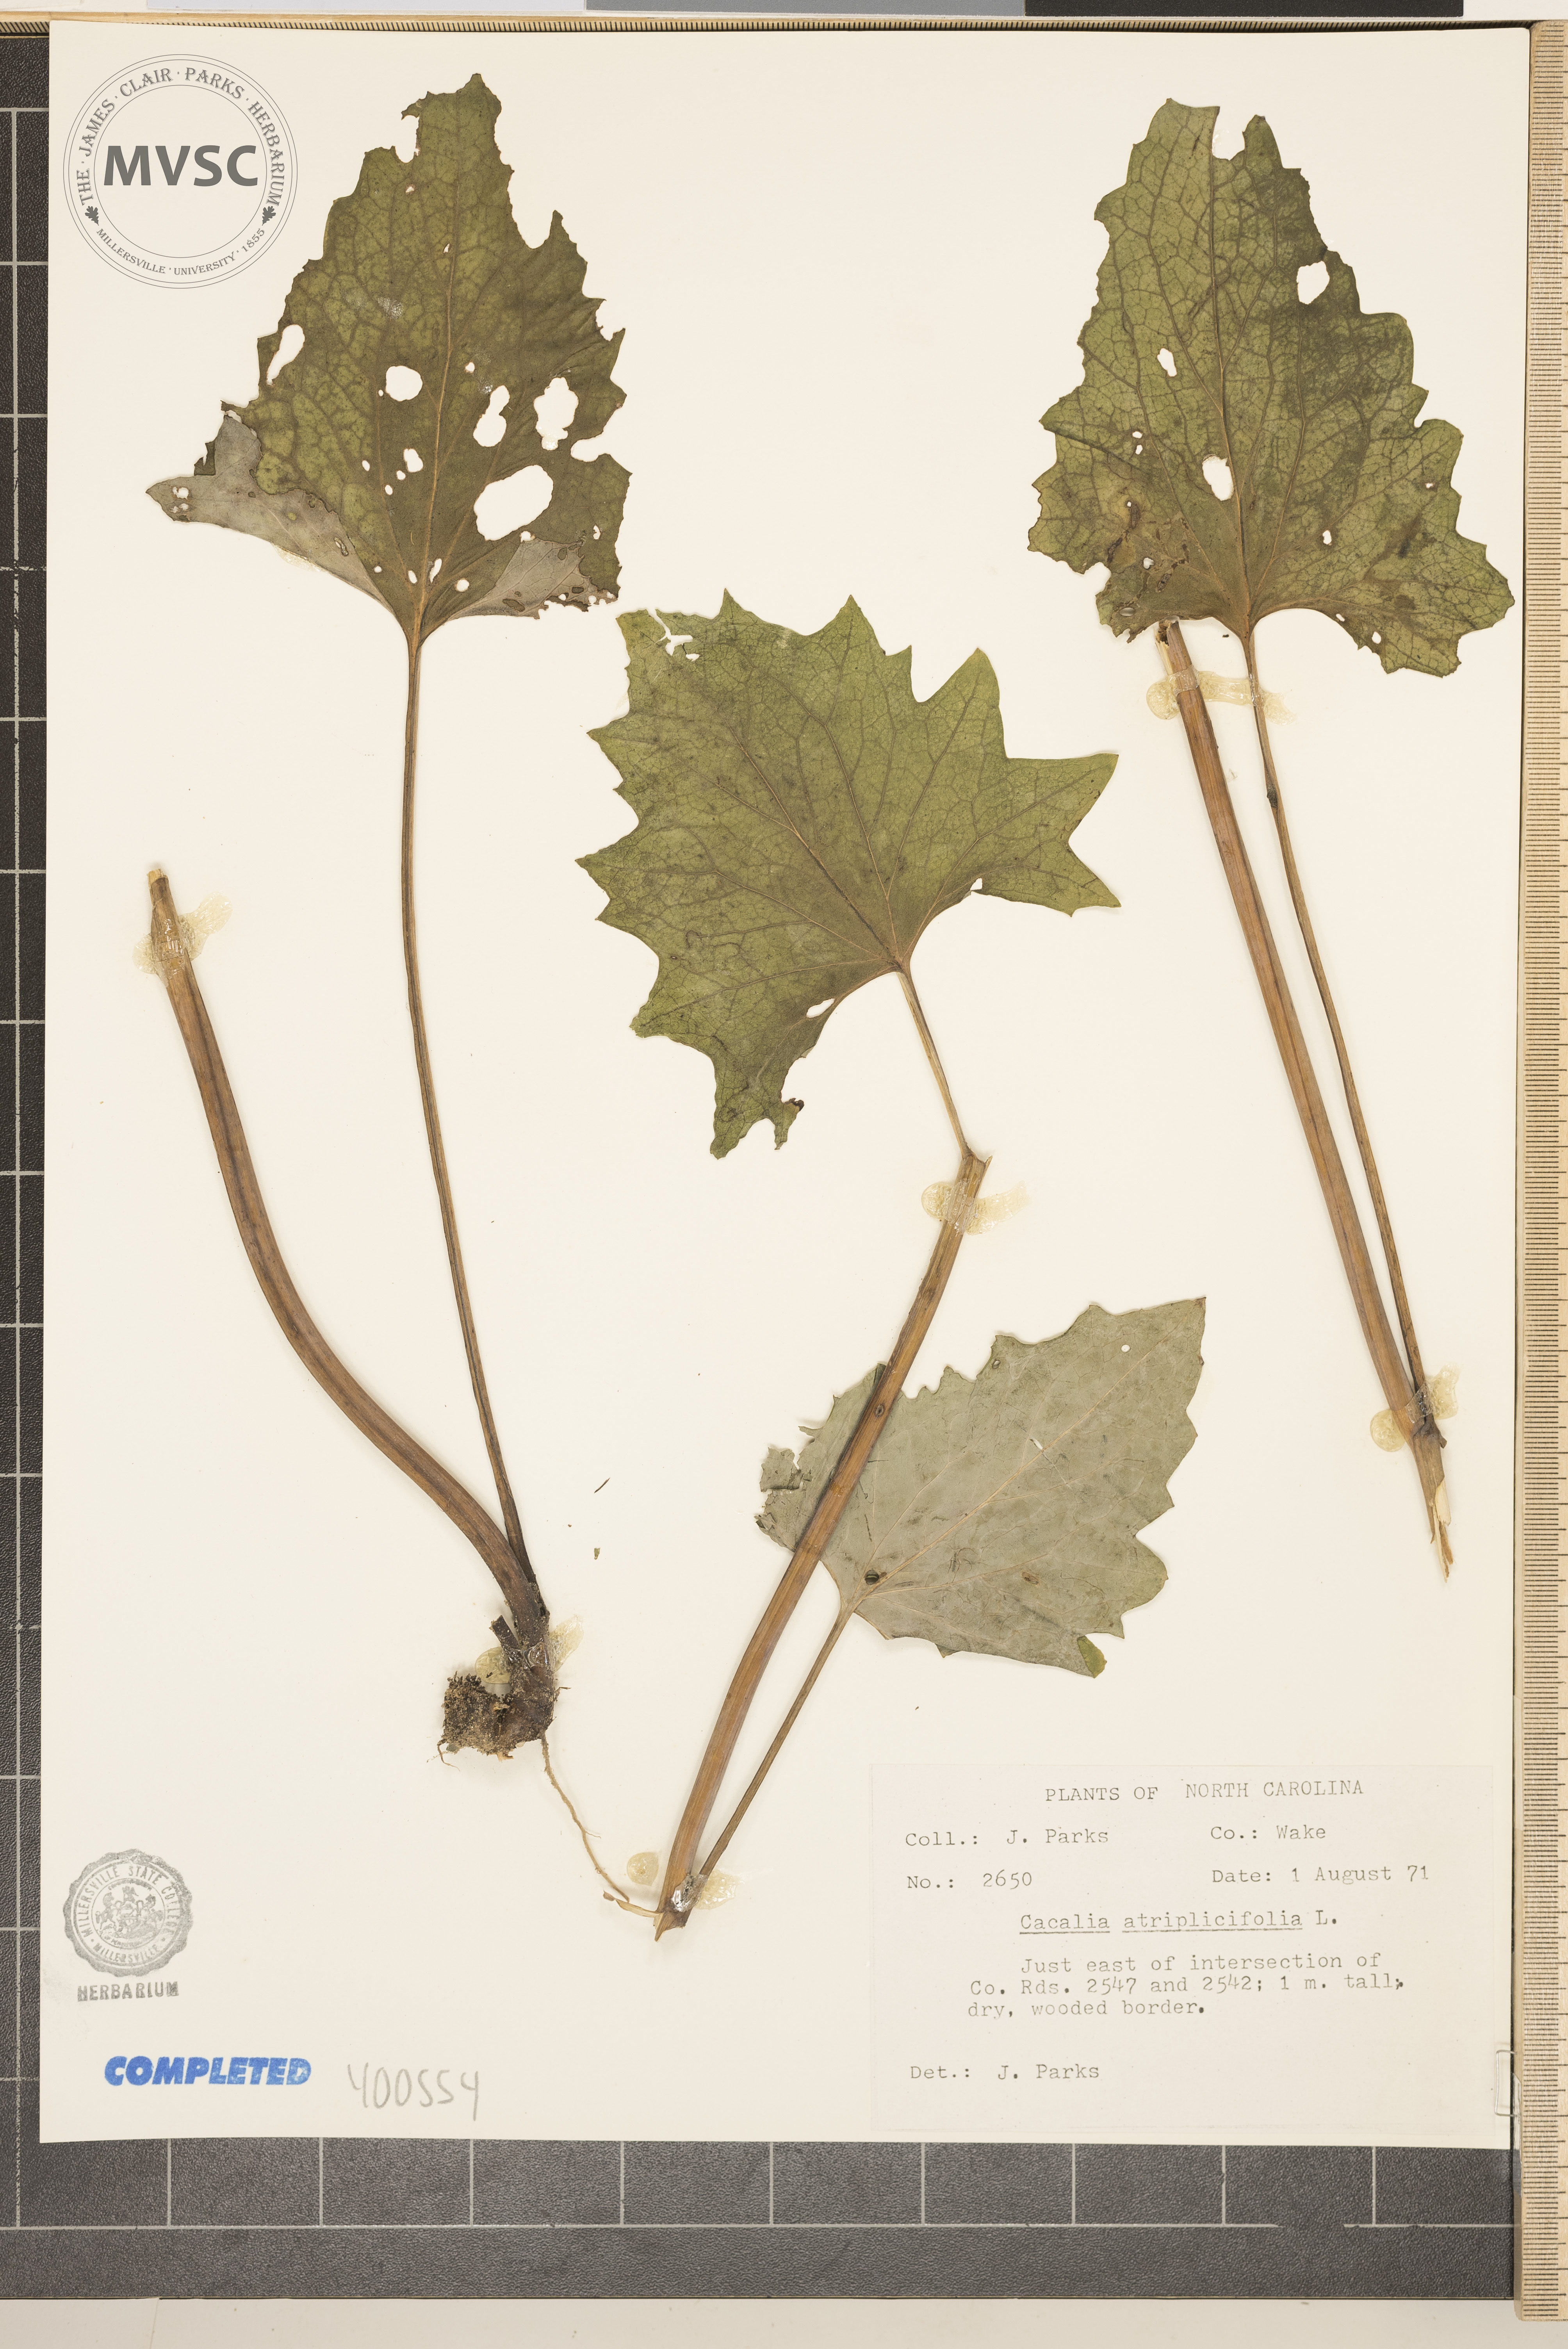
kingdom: Plantae
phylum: Tracheophyta
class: Magnoliopsida
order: Asterales
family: Asteraceae
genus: Arnoglossum
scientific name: Arnoglossum atriplicifolium
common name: Pale indian-plantain
